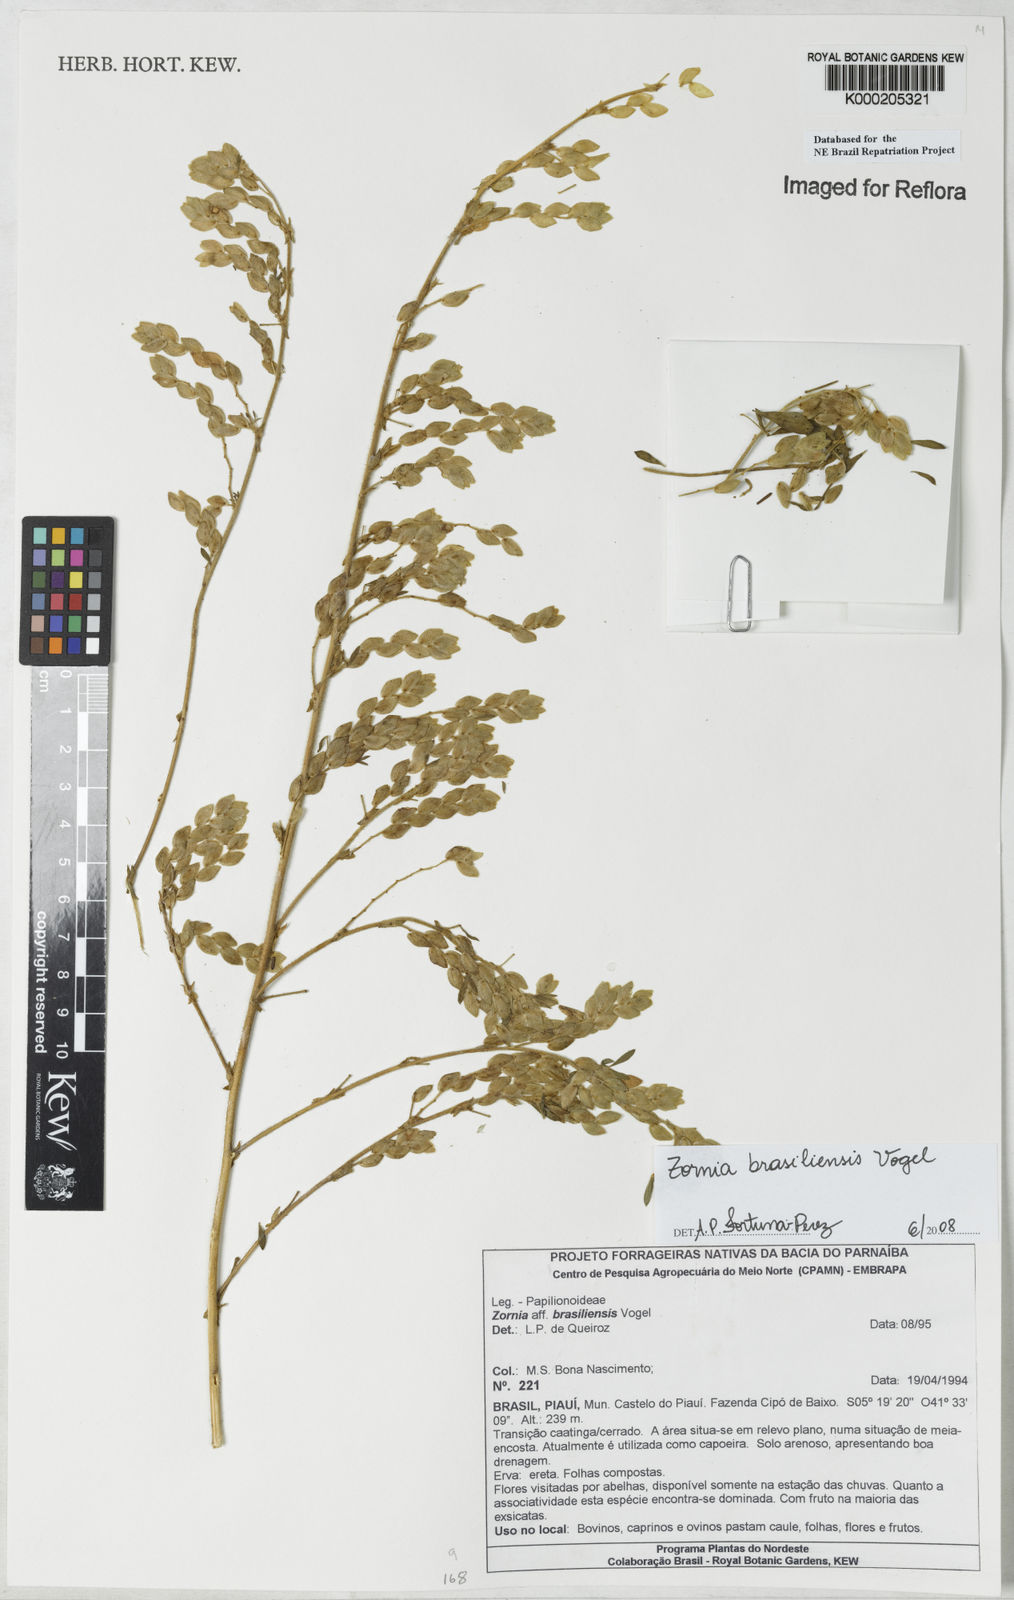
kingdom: Plantae
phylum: Tracheophyta
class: Magnoliopsida
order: Fabales
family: Fabaceae
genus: Zornia
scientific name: Zornia brasiliensis
